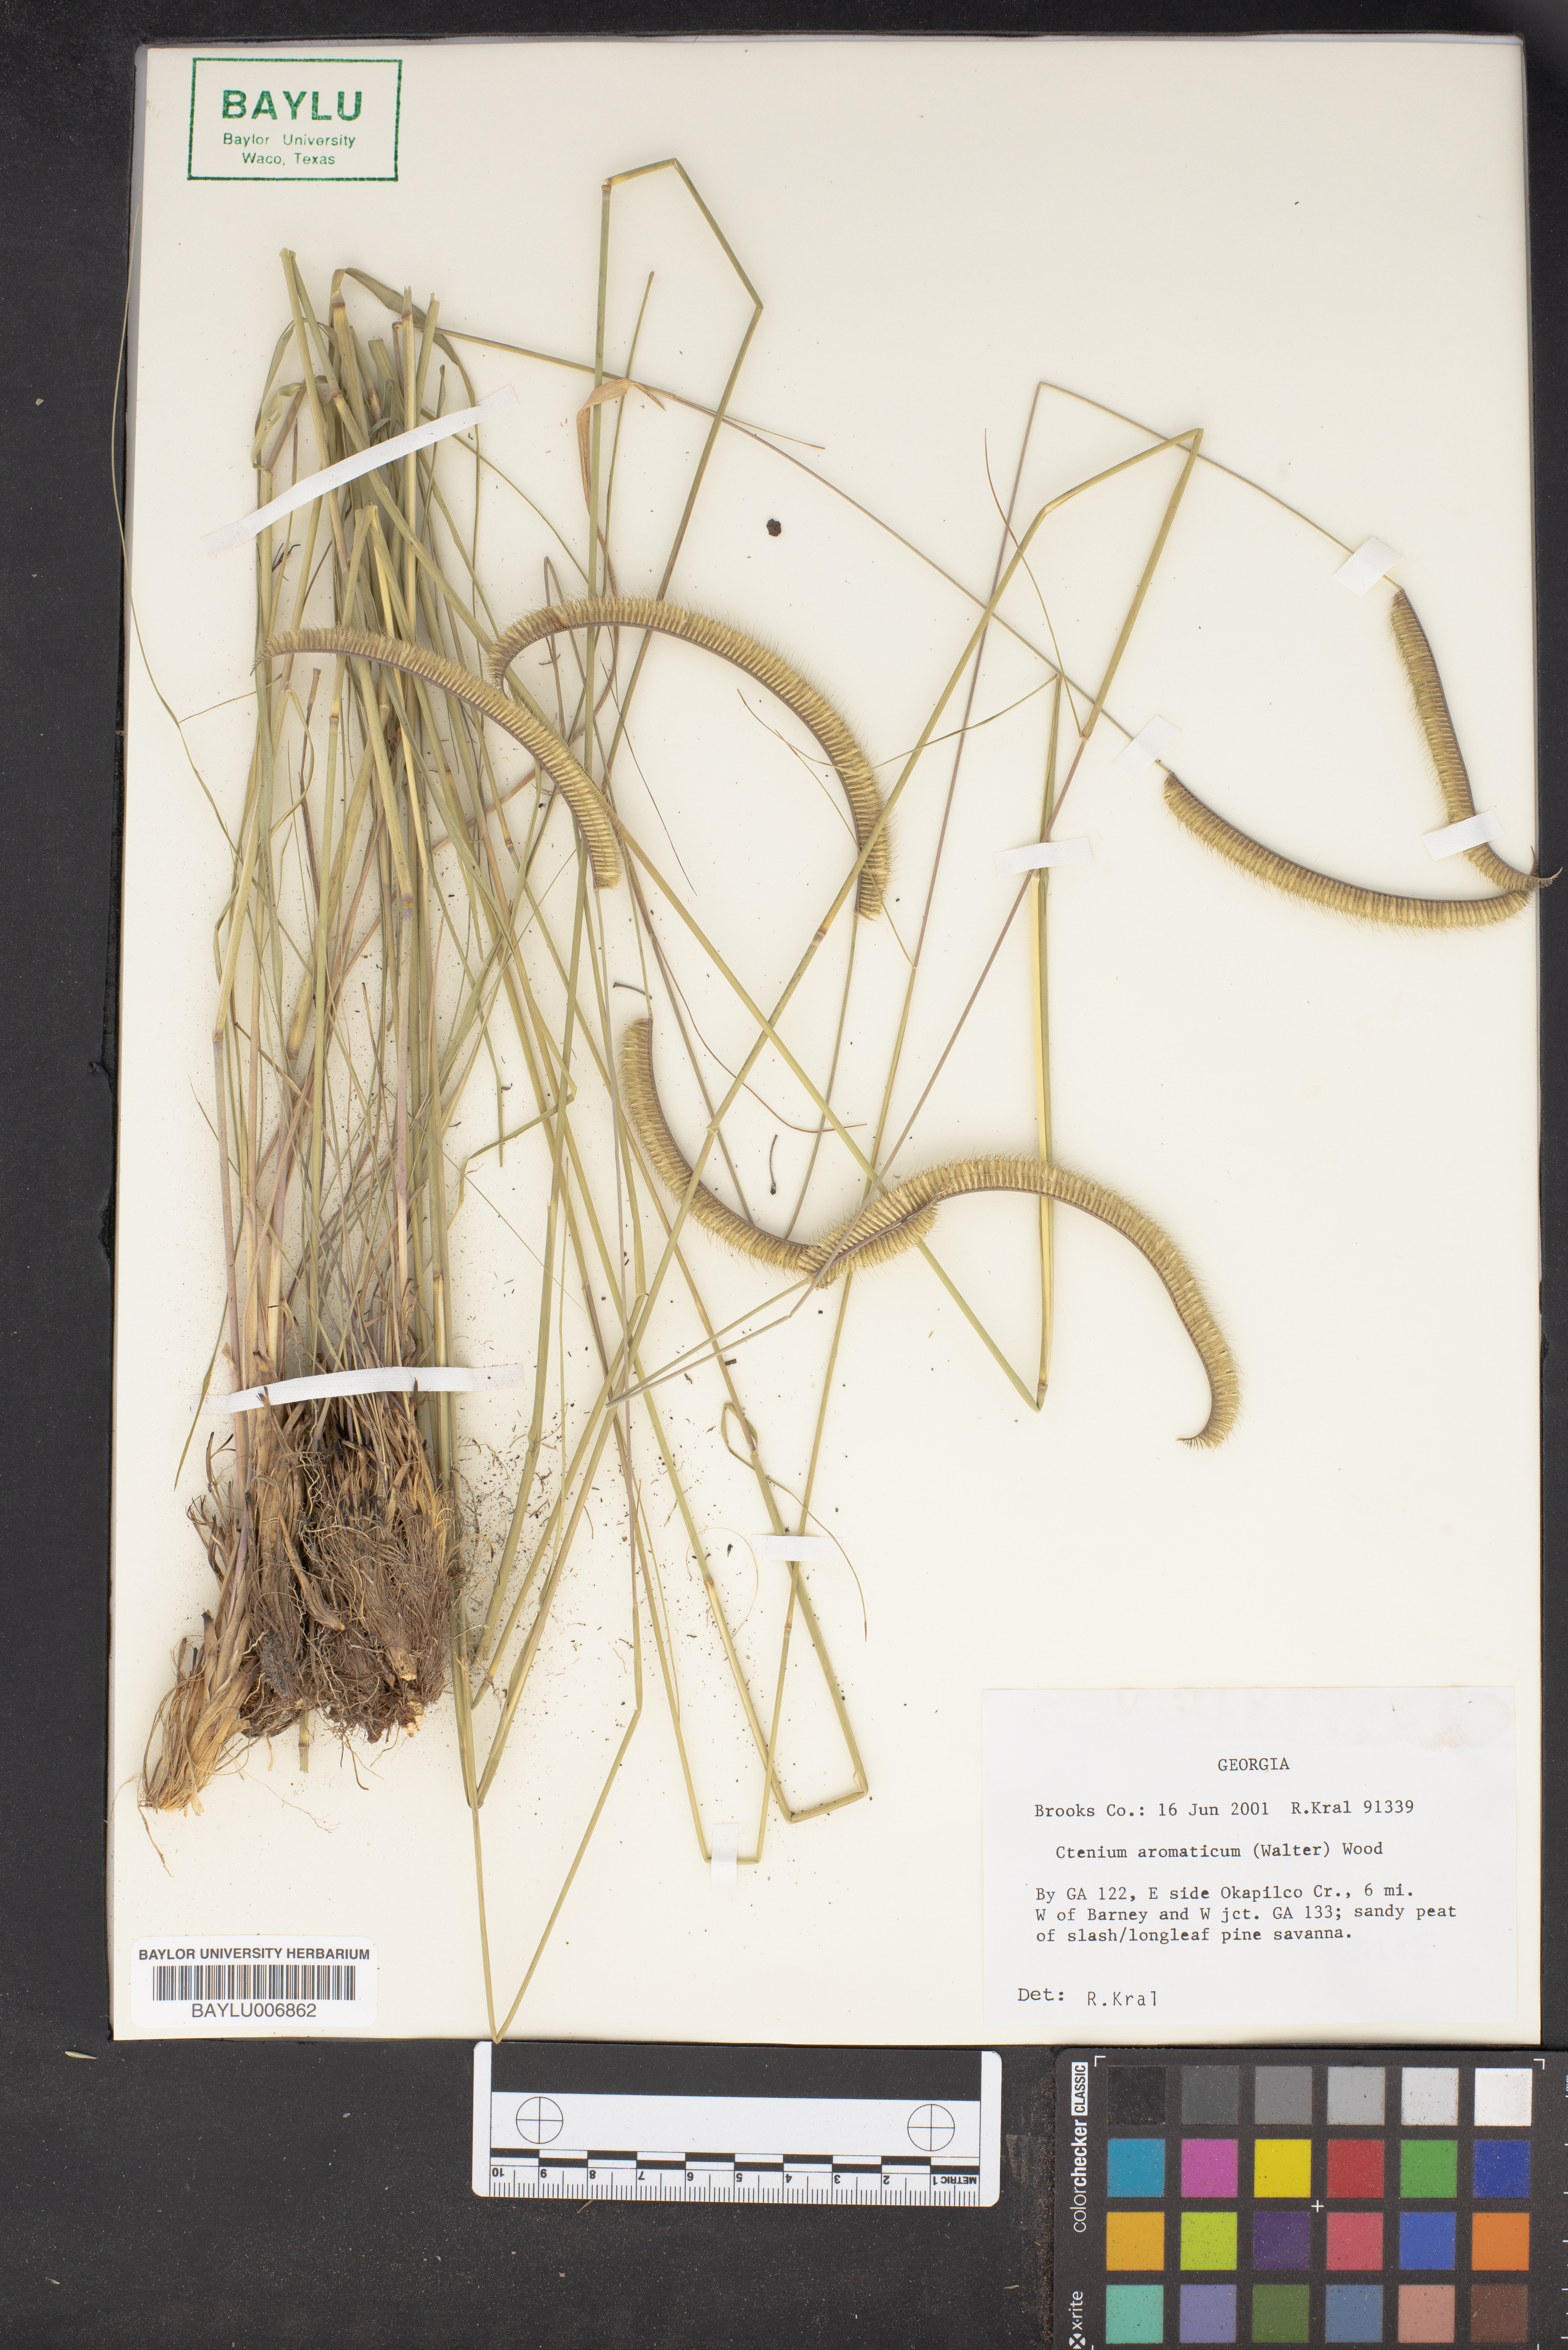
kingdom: Plantae
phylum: Tracheophyta
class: Liliopsida
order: Poales
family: Poaceae
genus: Ctenium
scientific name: Ctenium aromaticum
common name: Toothache grass
